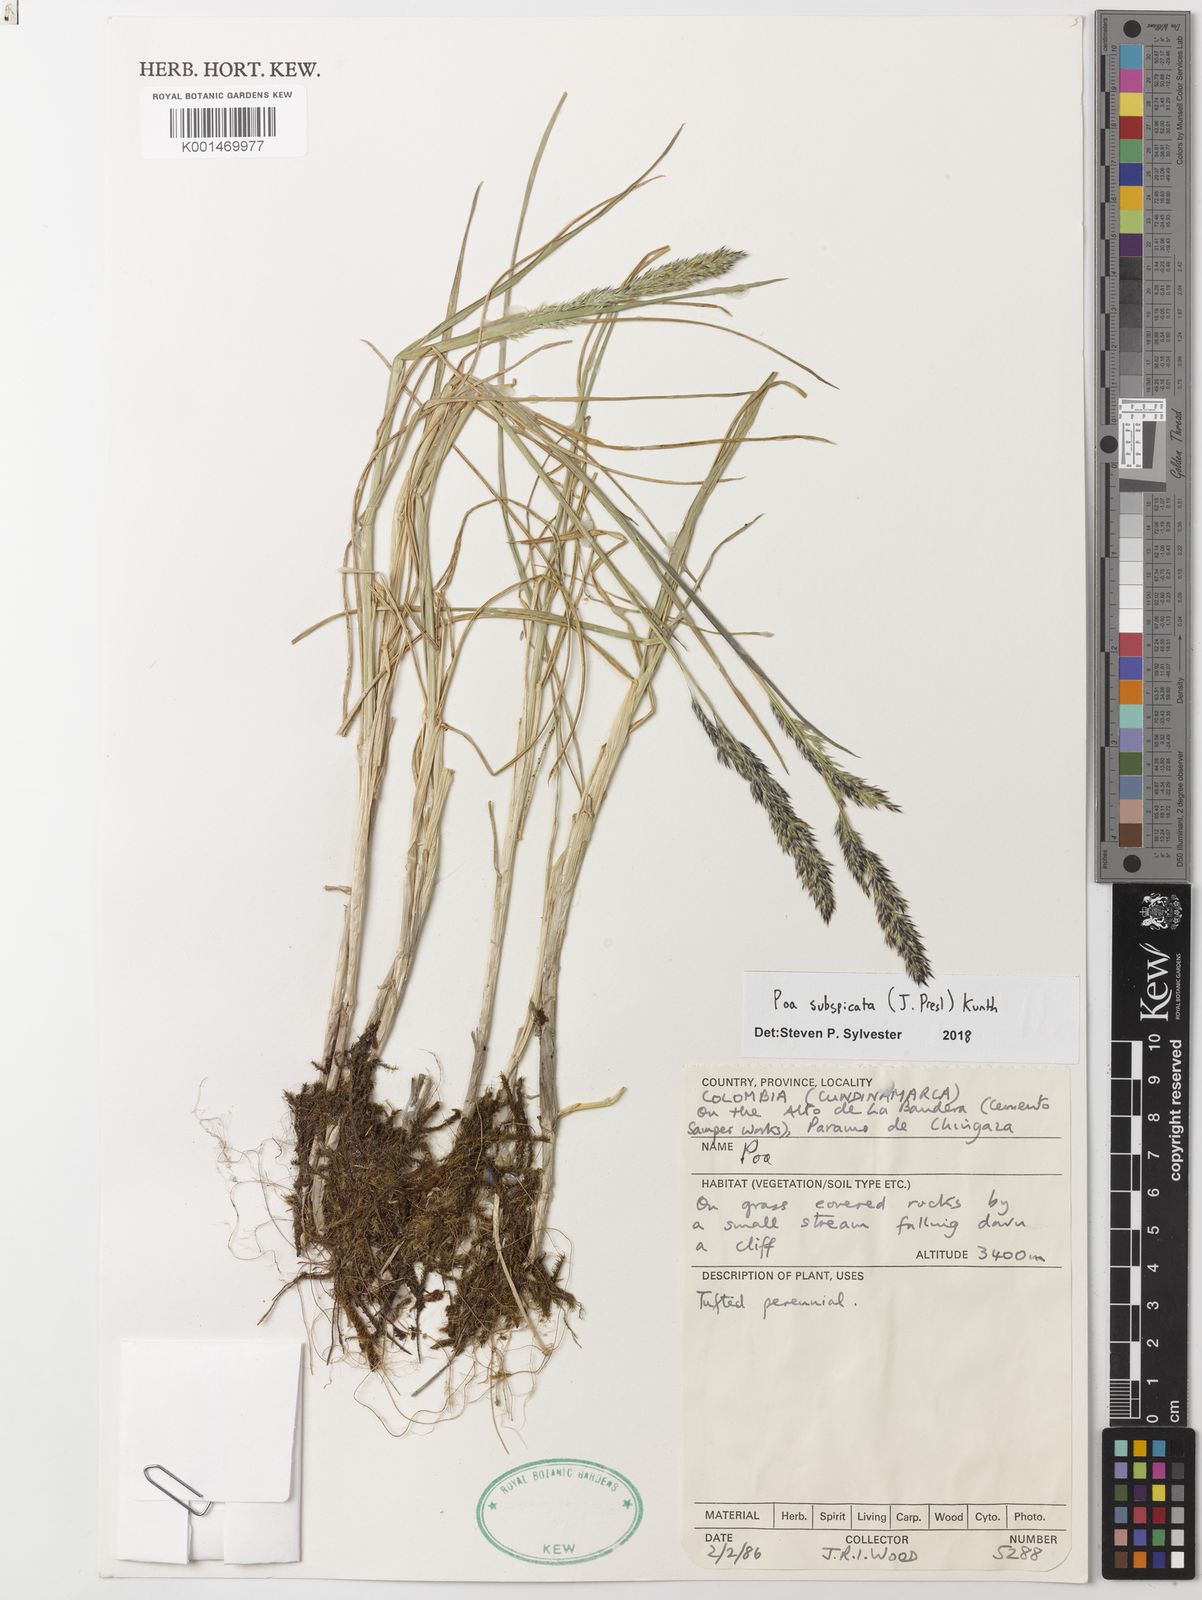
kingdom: Plantae
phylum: Tracheophyta
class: Liliopsida
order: Poales
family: Poaceae
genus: Poa
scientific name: Poa subspicata
